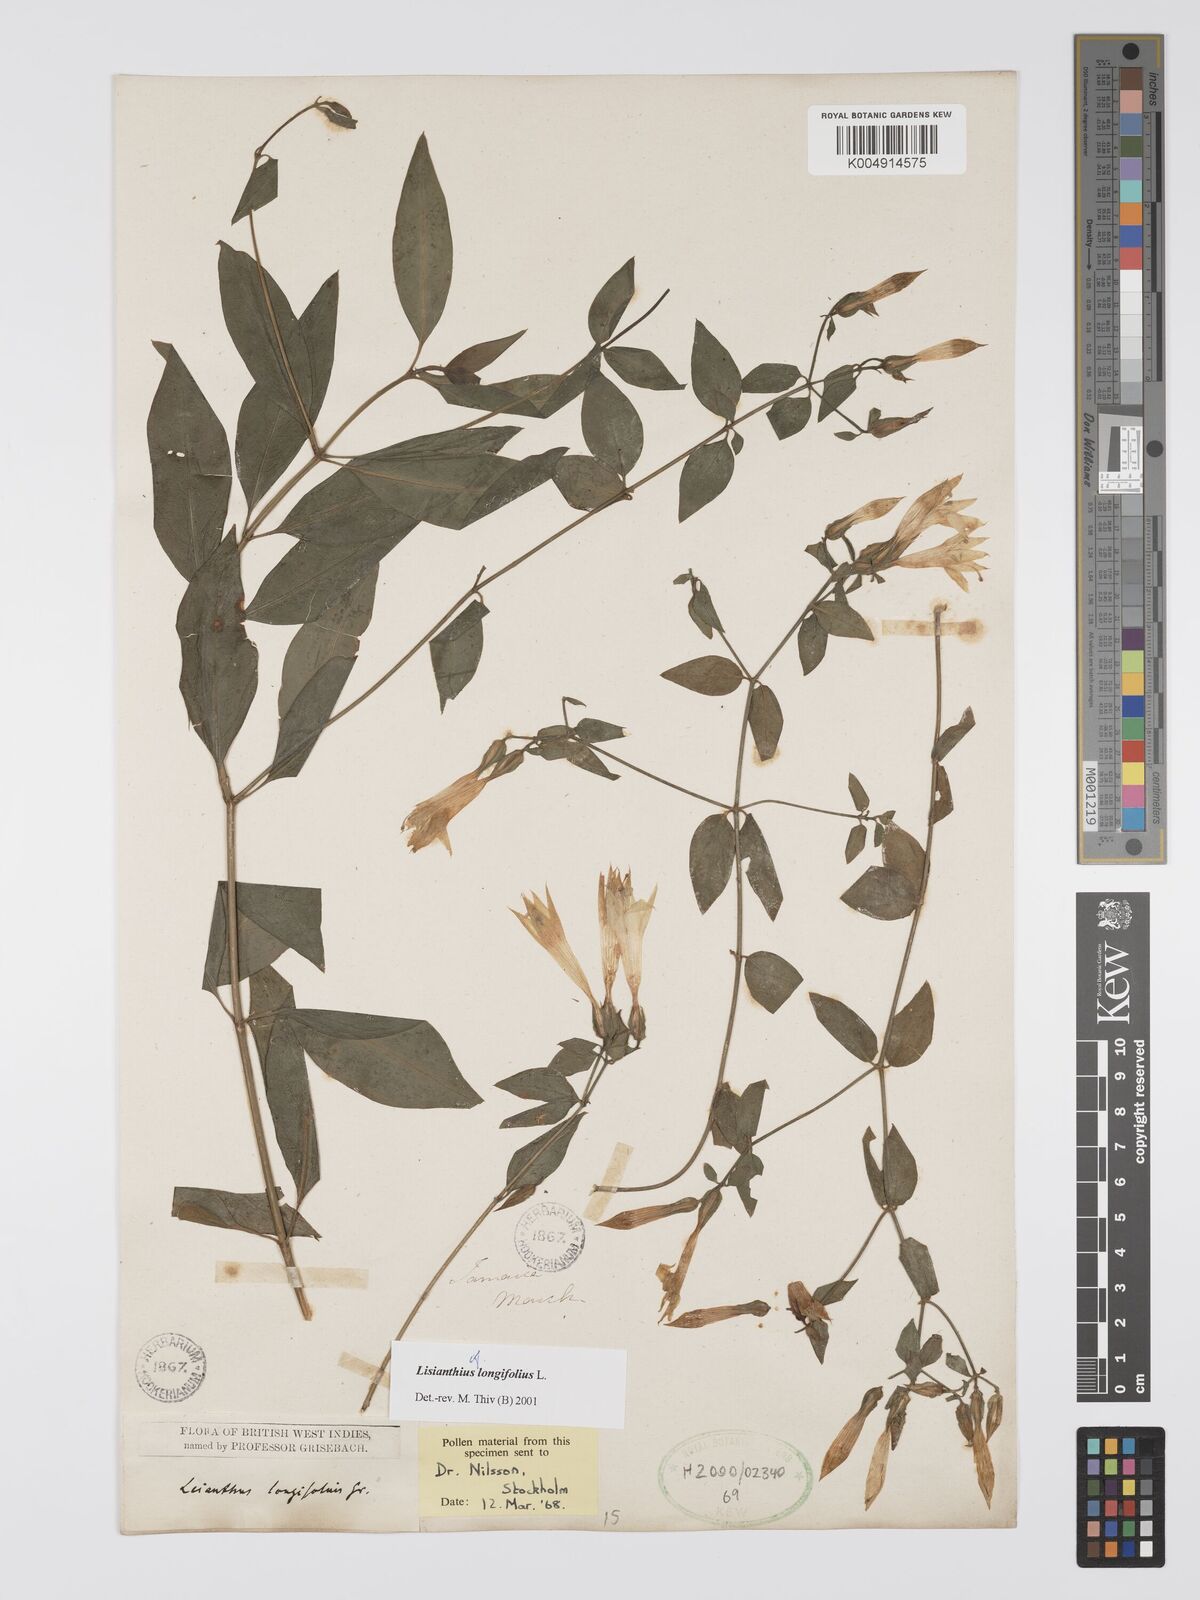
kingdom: Plantae
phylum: Tracheophyta
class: Magnoliopsida
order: Gentianales
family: Gentianaceae
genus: Lisianthus
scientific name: Lisianthus longifolius
